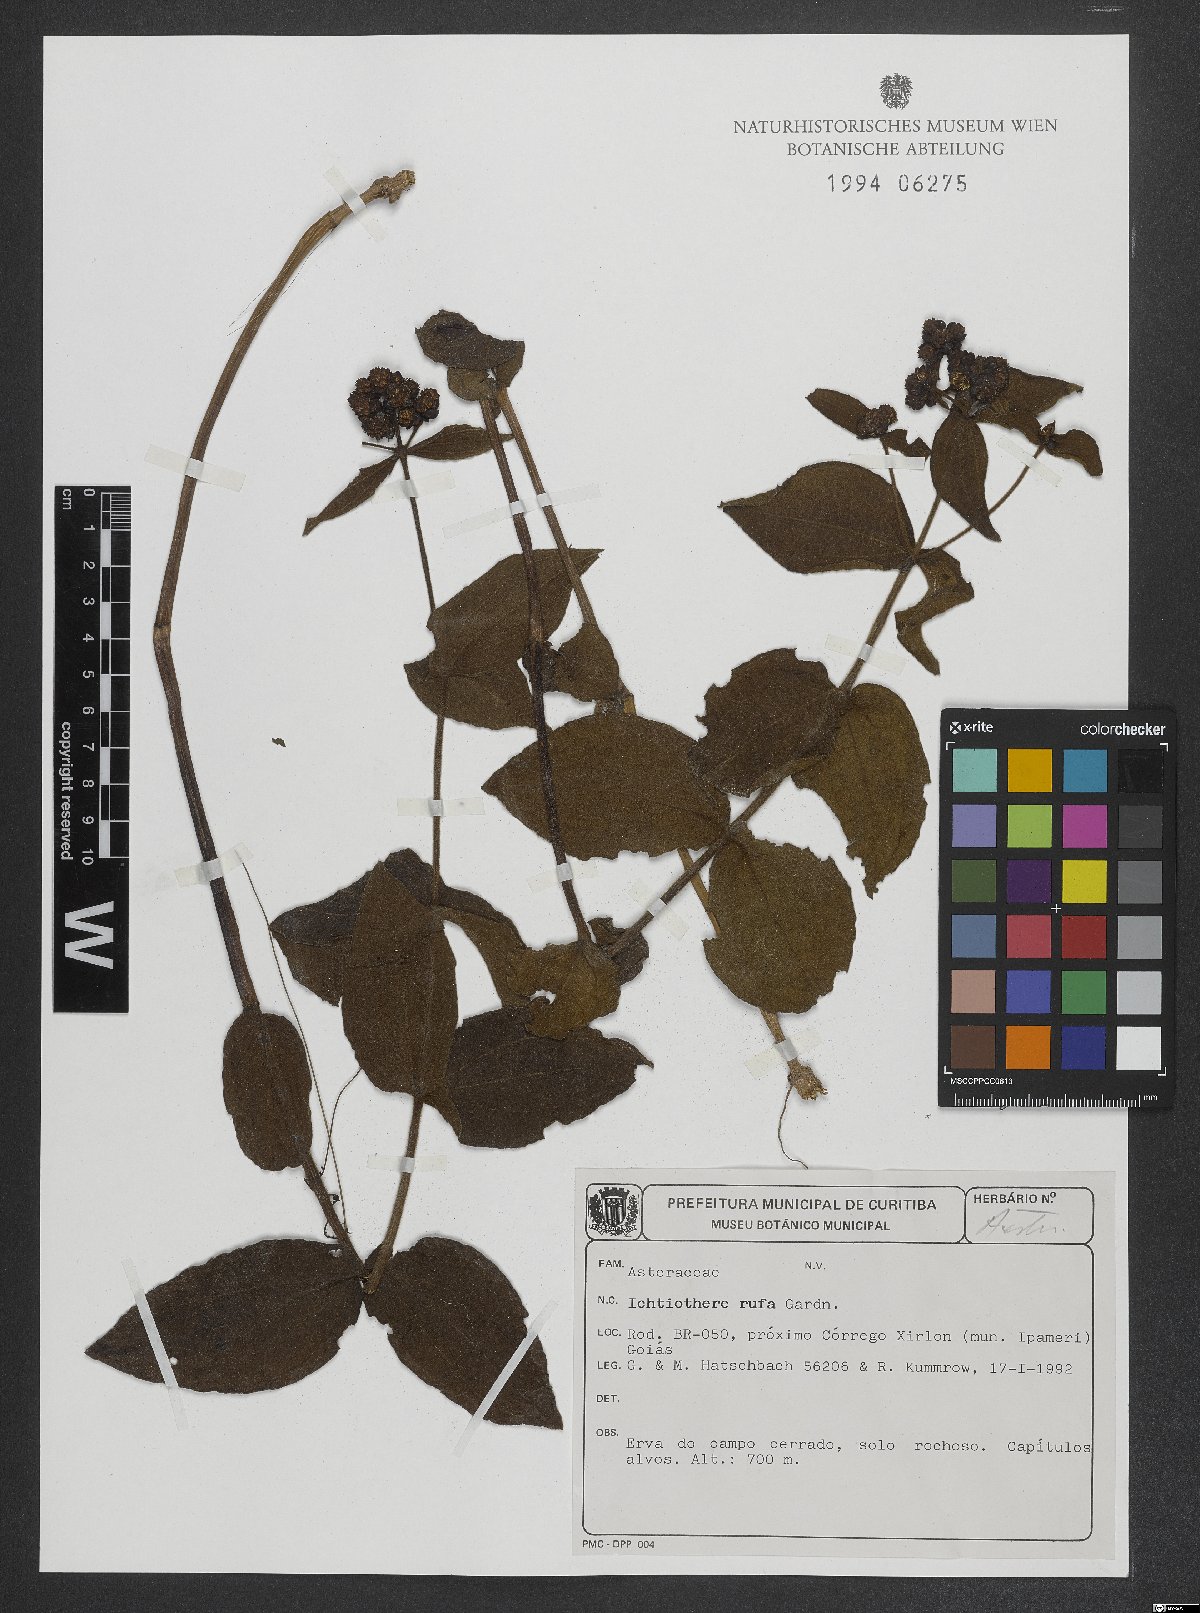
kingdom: Plantae
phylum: Tracheophyta
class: Magnoliopsida
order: Asterales
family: Asteraceae
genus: Ichthyothere
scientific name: Ichthyothere rufa
